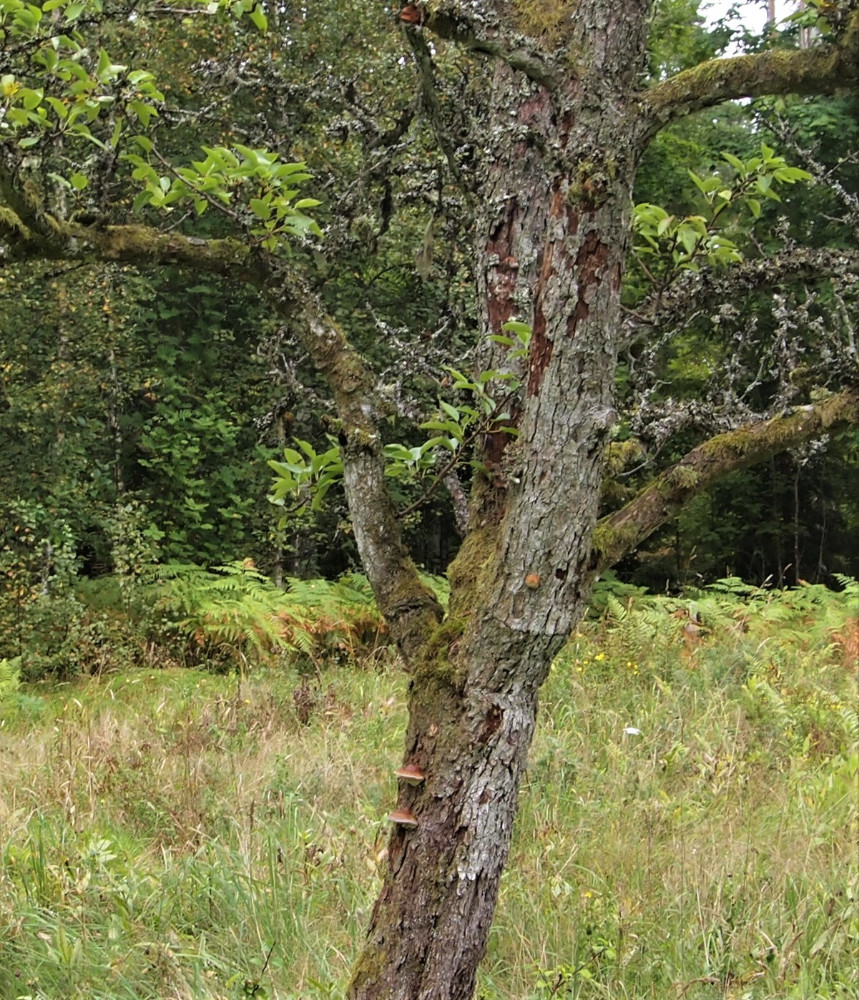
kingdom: Fungi
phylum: Basidiomycota
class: Agaricomycetes
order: Polyporales
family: Fomitopsidaceae
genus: Fomitopsis
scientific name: Fomitopsis pinicola
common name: randbæltet hovporesvamp
